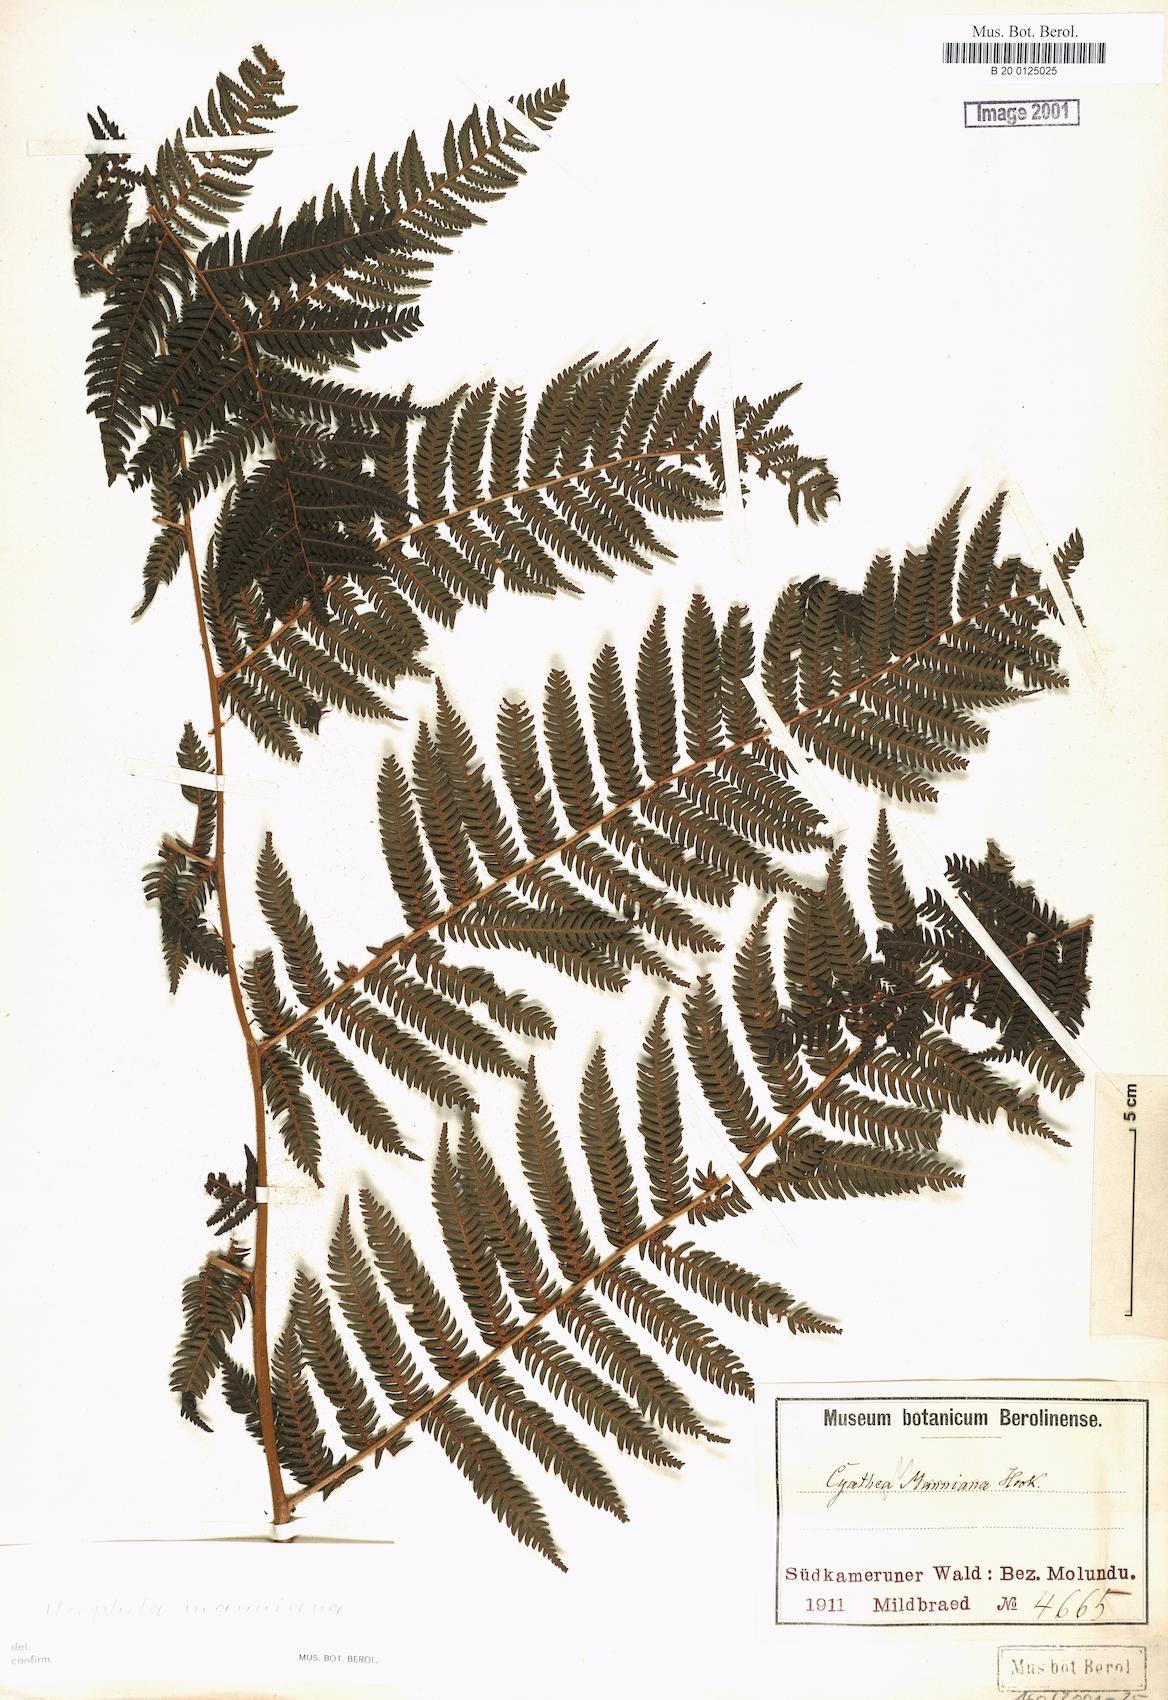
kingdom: Plantae
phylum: Tracheophyta
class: Polypodiopsida
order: Cyatheales
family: Cyatheaceae
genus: Alsophila
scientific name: Alsophila manniana
